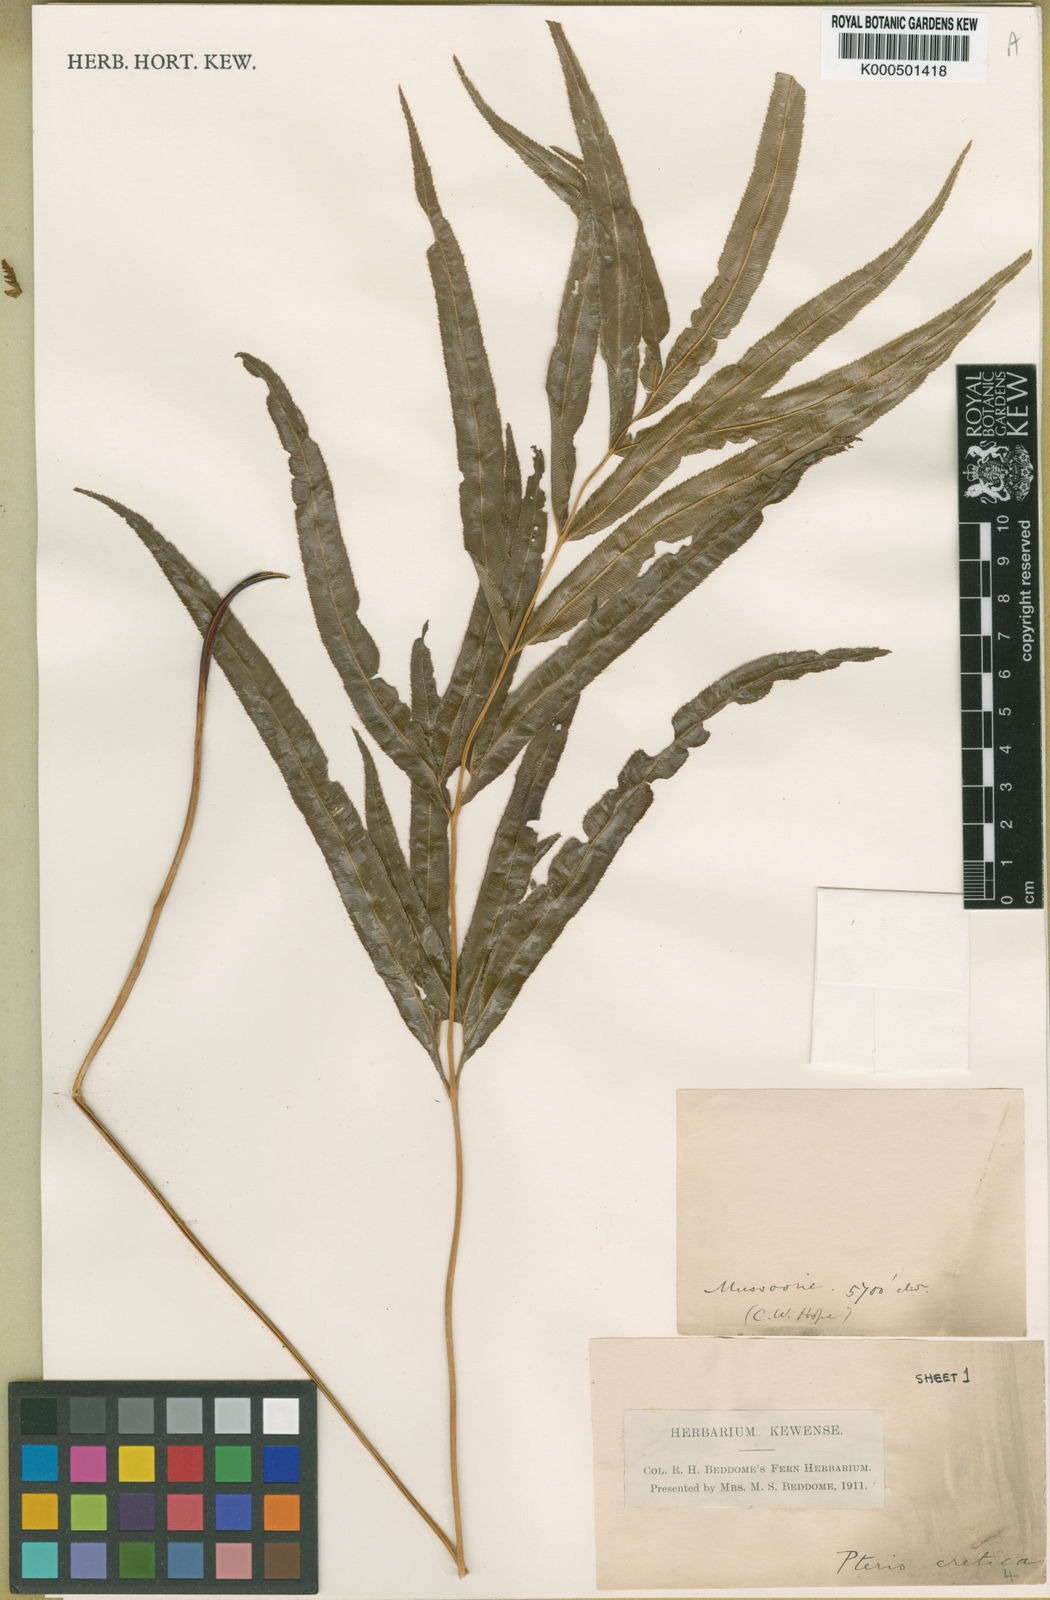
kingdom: Plantae
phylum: Tracheophyta
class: Polypodiopsida
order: Polypodiales
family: Pteridaceae
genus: Pteris
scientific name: Pteris cretica
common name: Ribbon fern
